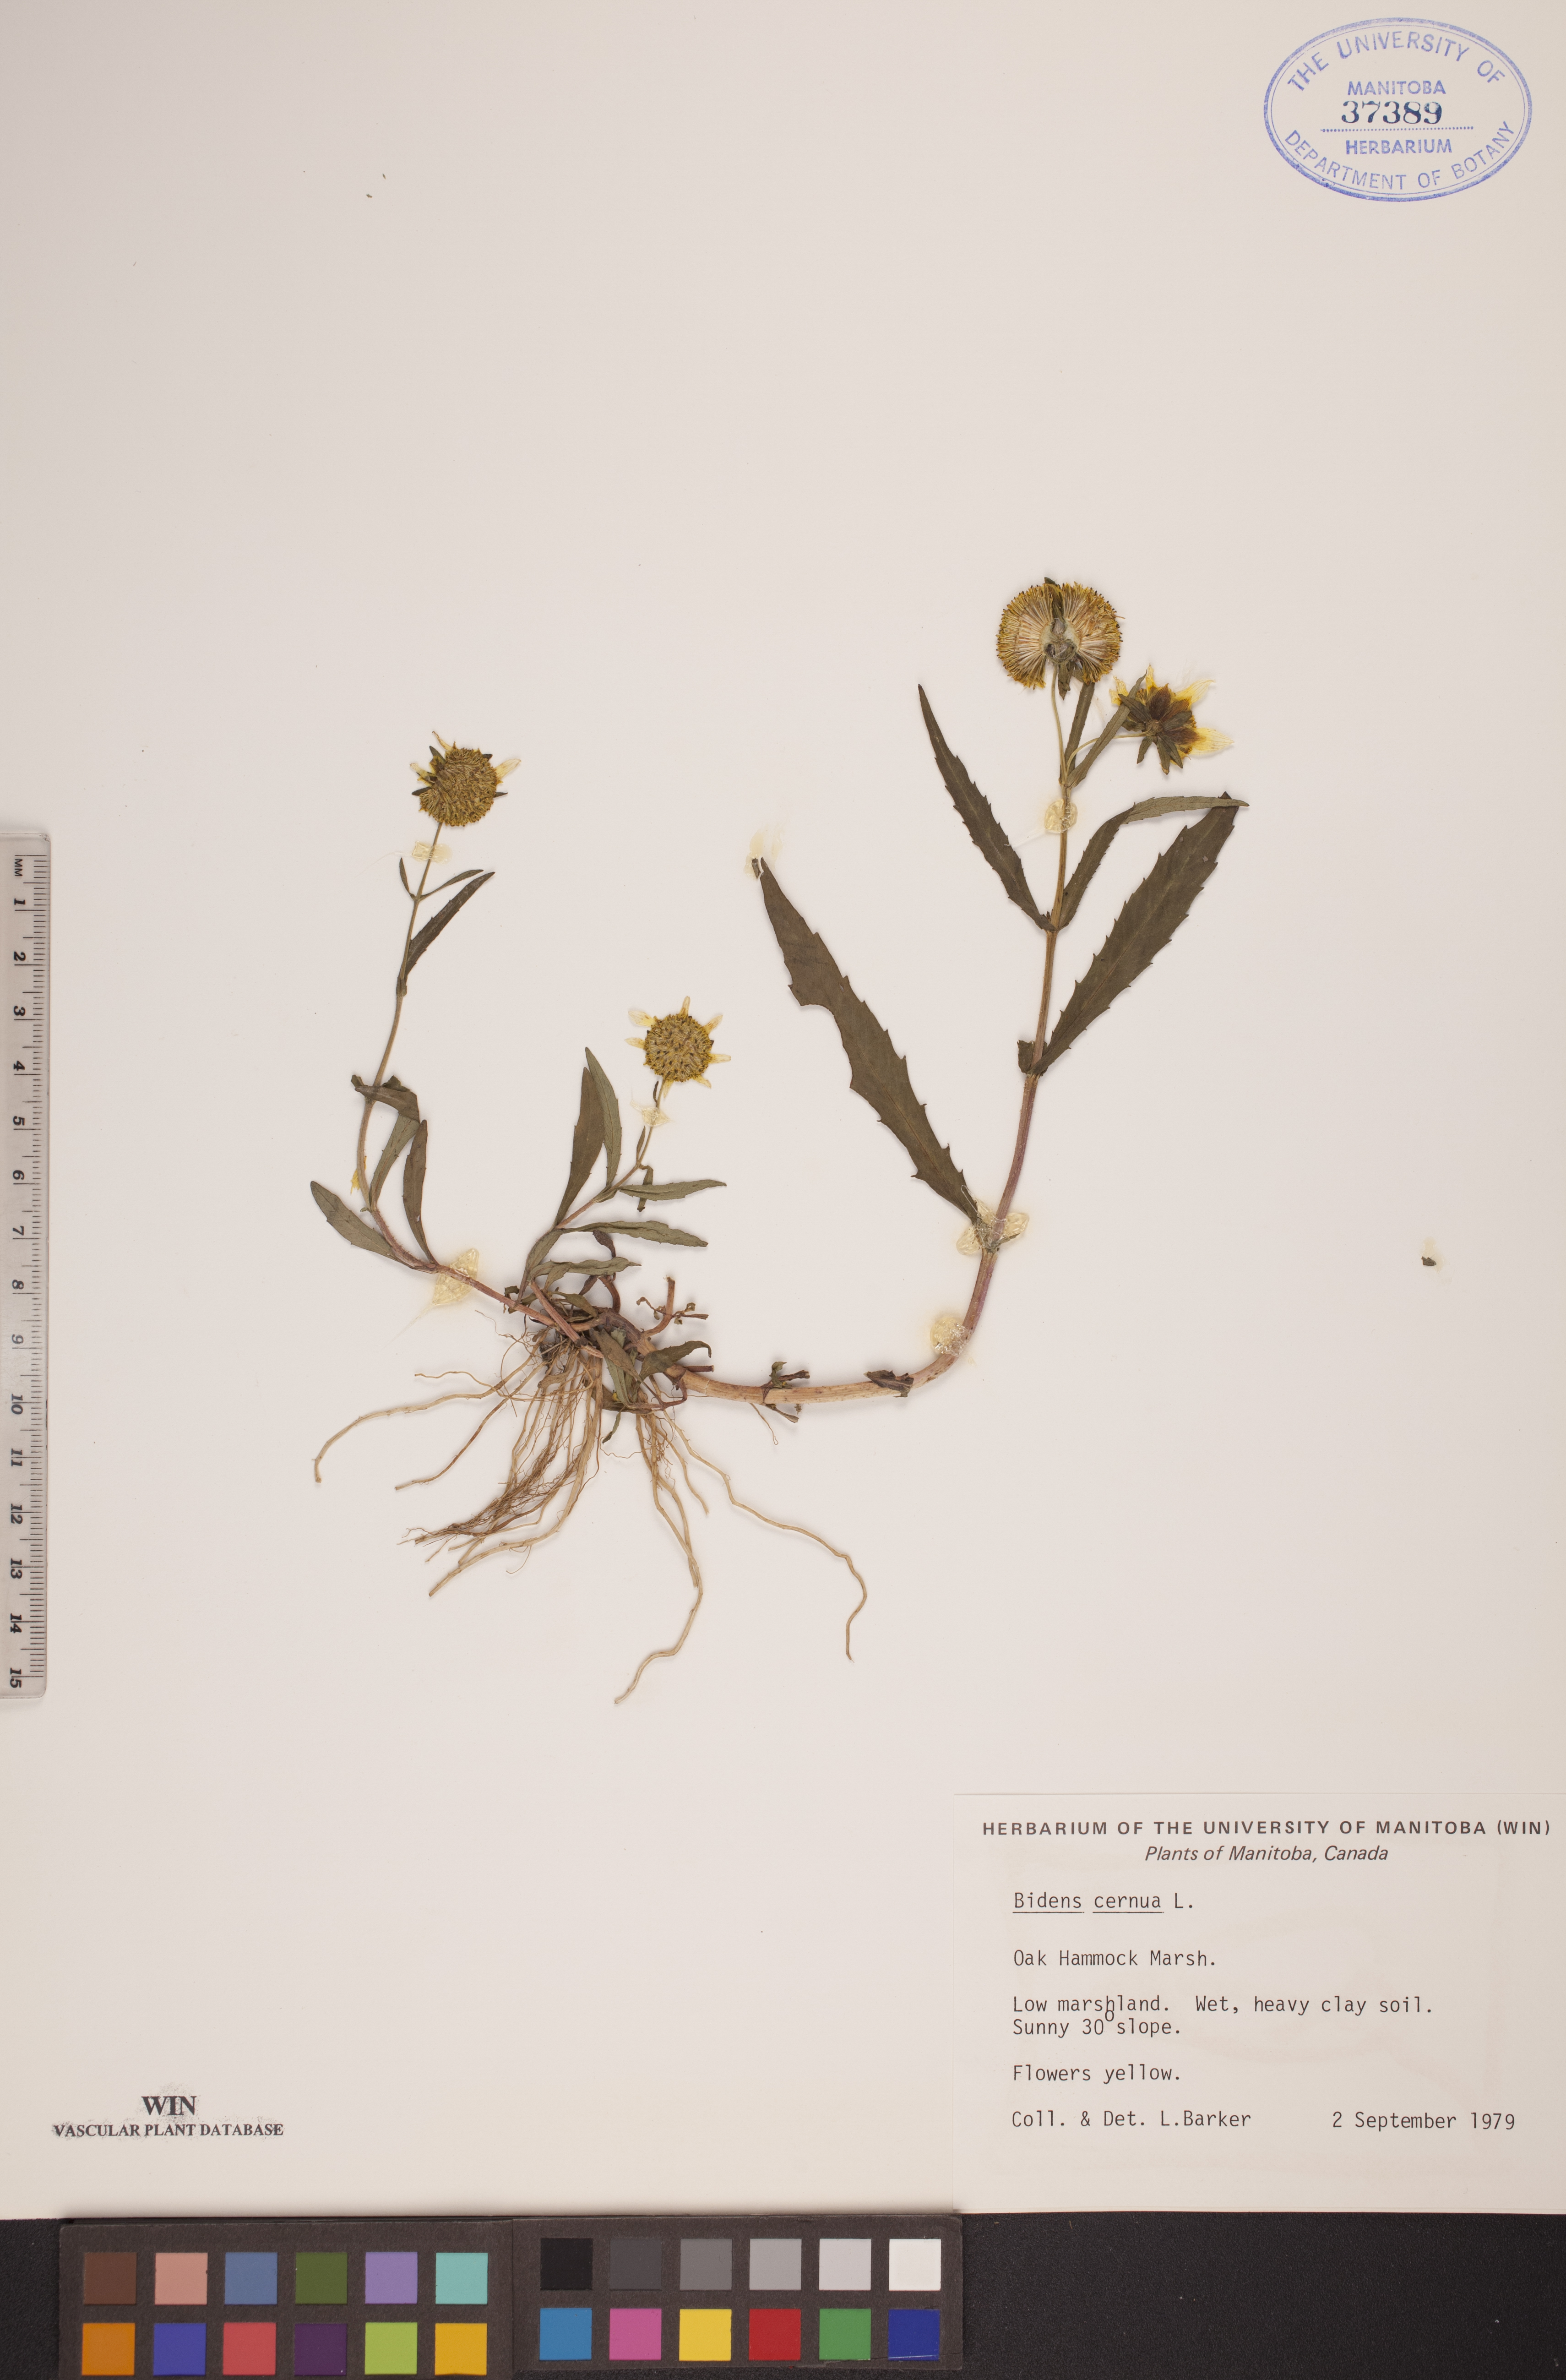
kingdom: Plantae
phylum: Tracheophyta
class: Magnoliopsida
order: Asterales
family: Asteraceae
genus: Bidens
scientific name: Bidens cernua
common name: Nodding bur-marigold
